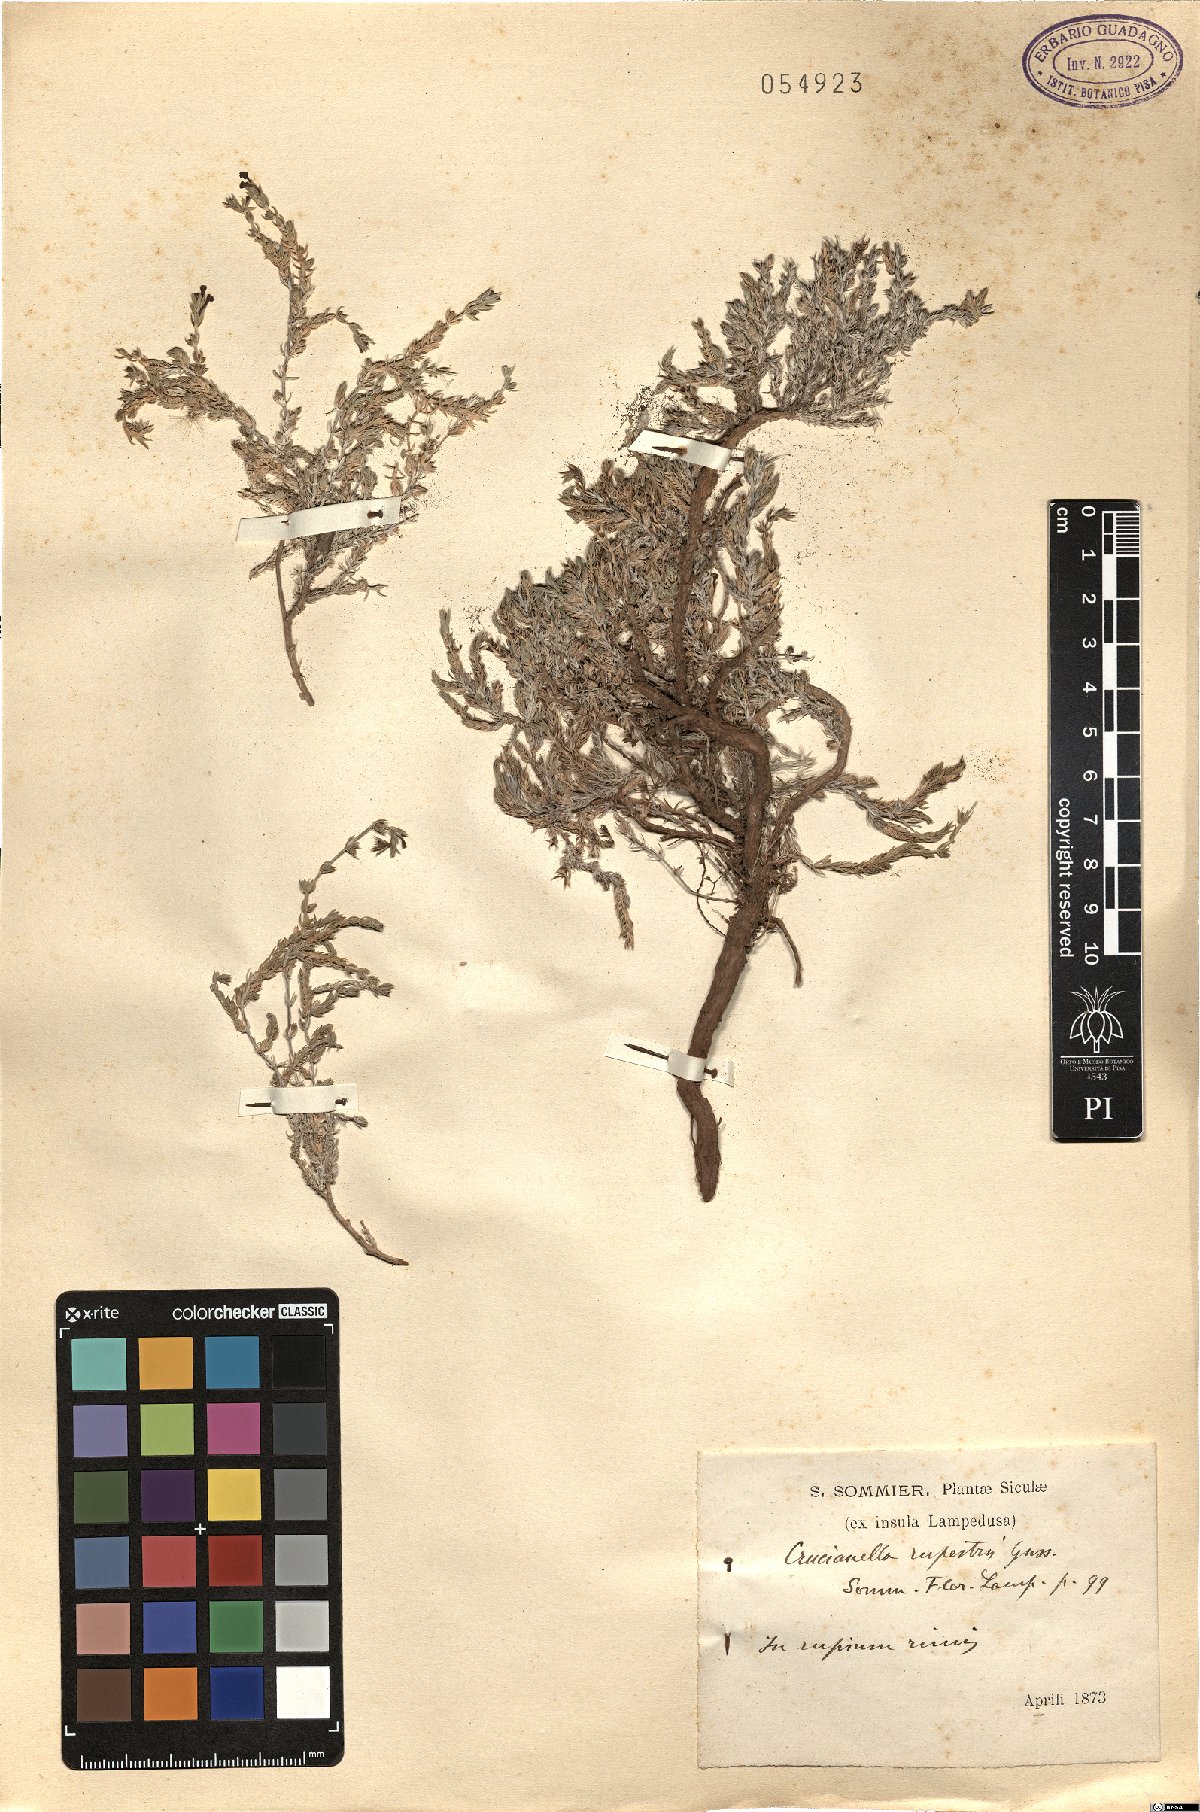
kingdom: Plantae
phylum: Tracheophyta
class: Magnoliopsida
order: Gentianales
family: Rubiaceae
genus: Crucianella
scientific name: Crucianella maritima
